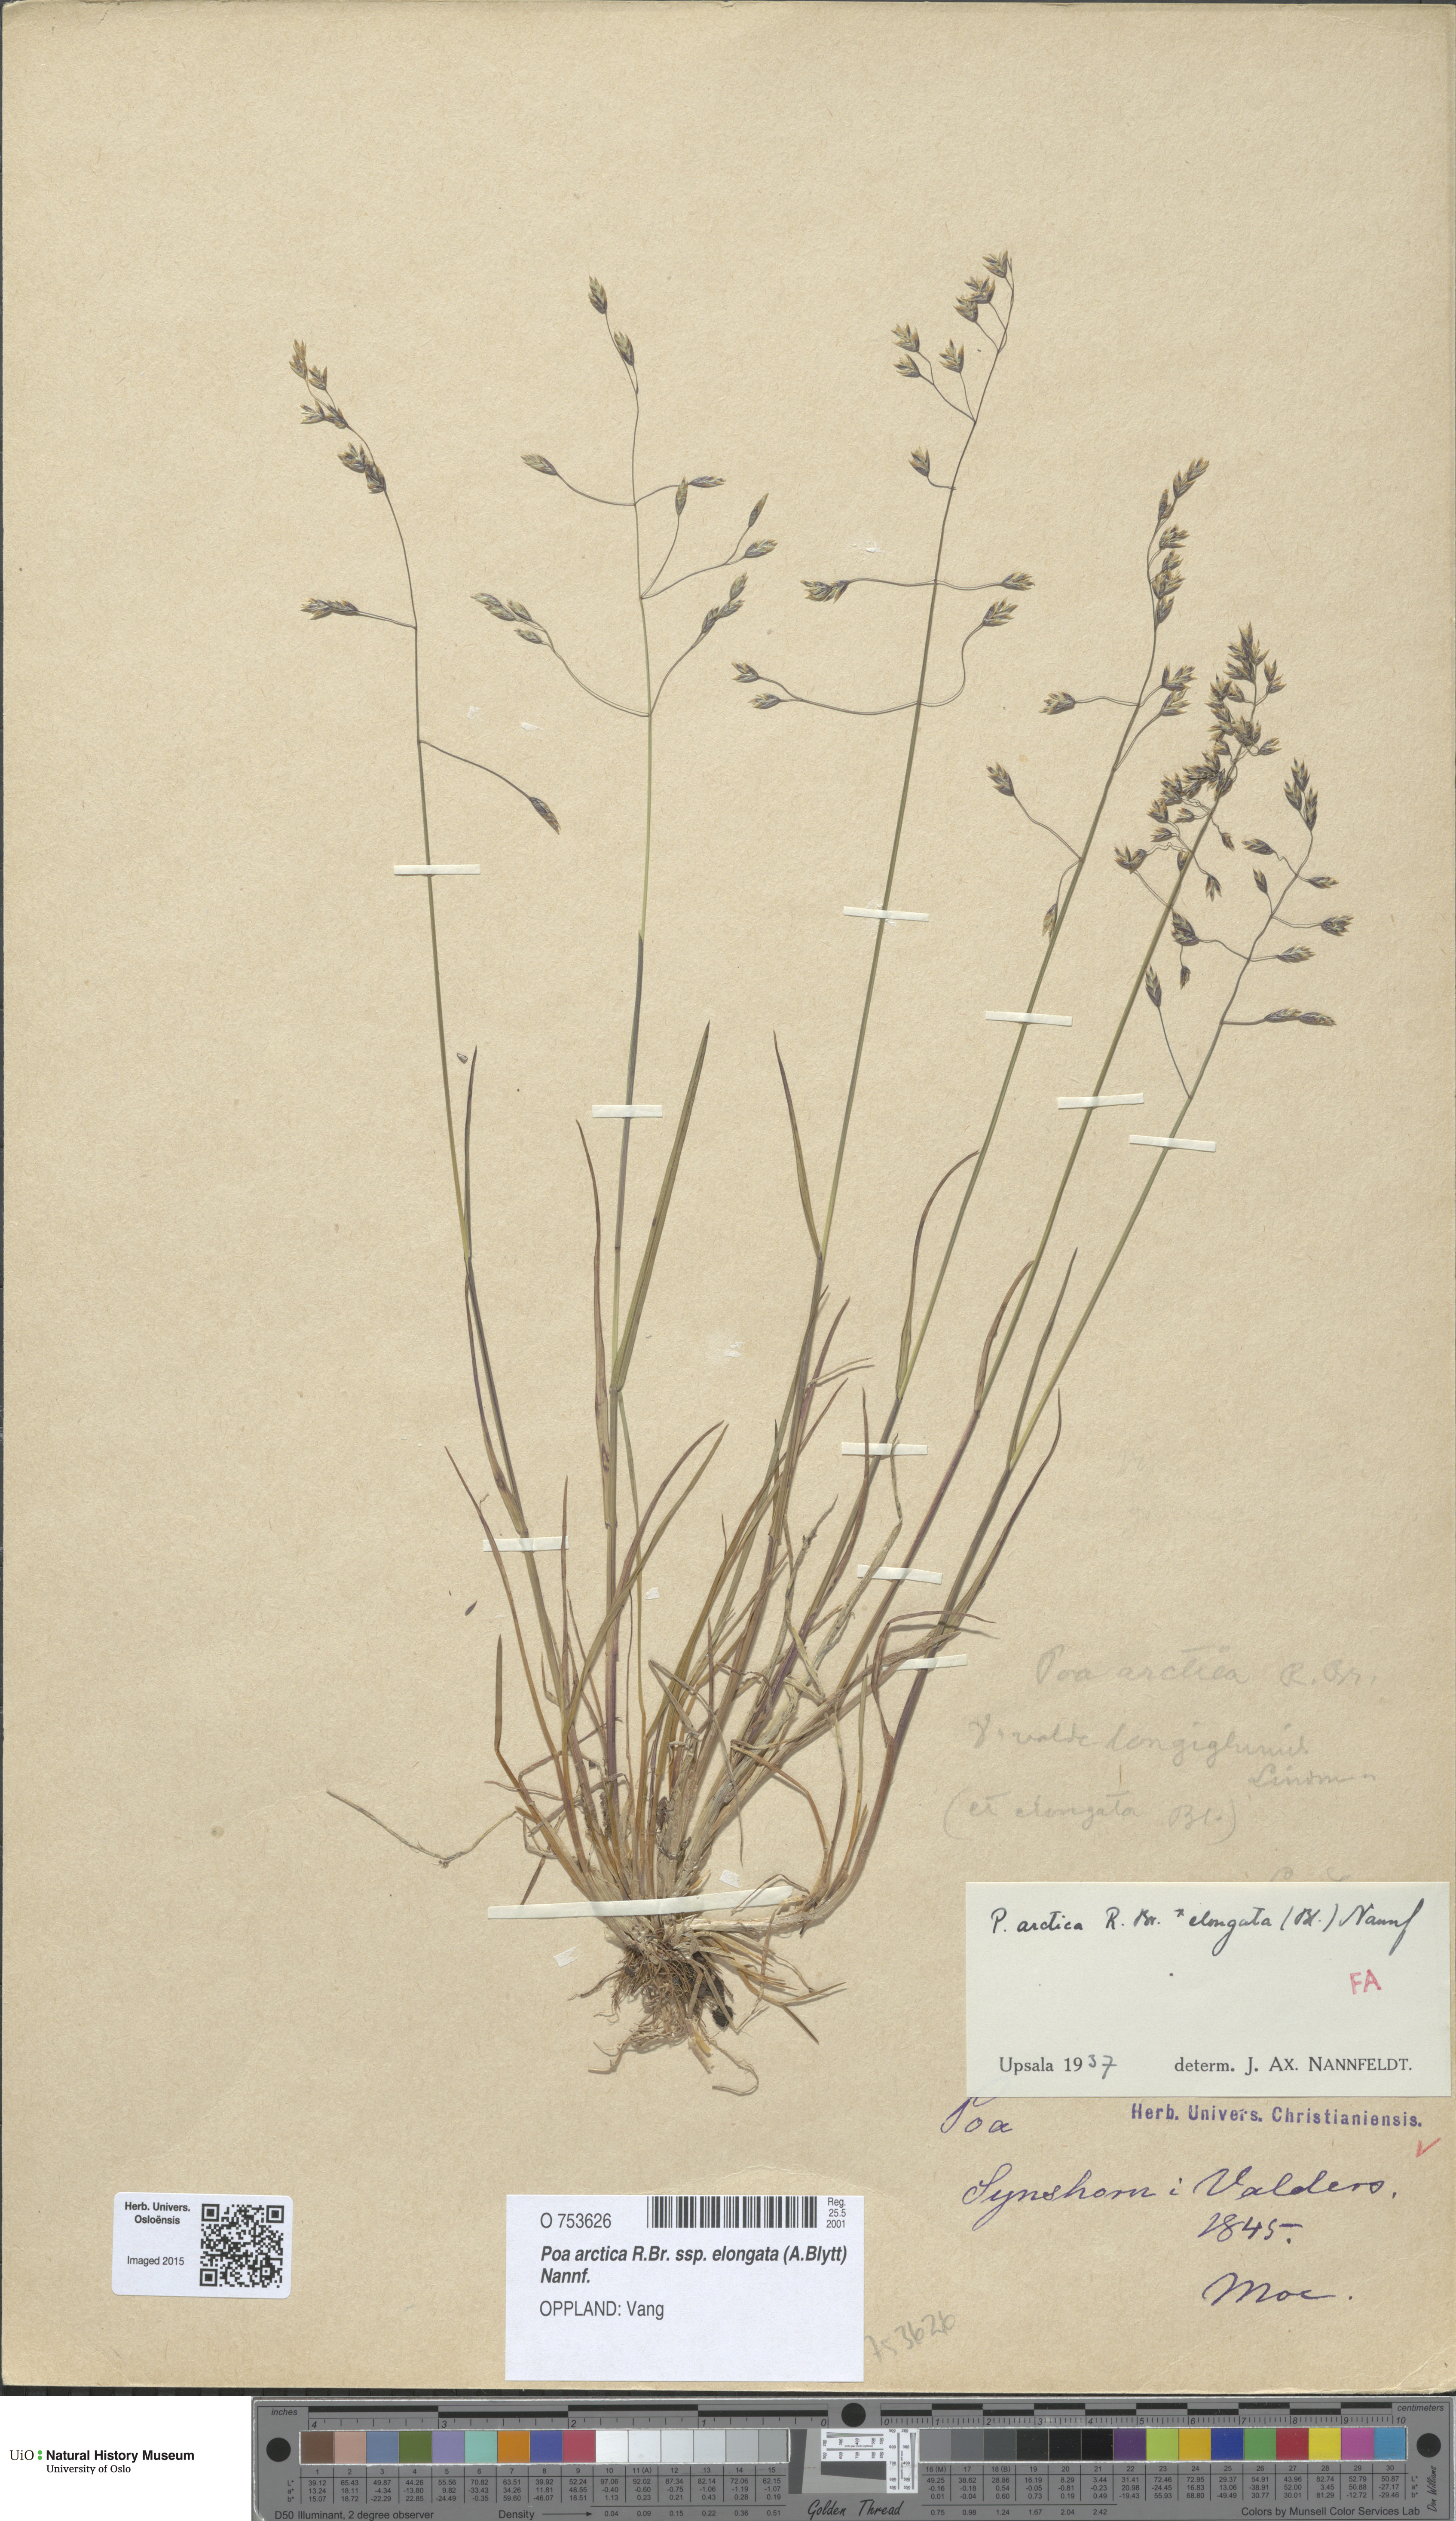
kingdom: Plantae
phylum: Tracheophyta
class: Liliopsida
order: Poales
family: Poaceae
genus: Poa
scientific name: Poa arctica
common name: Arctic bluegrass
